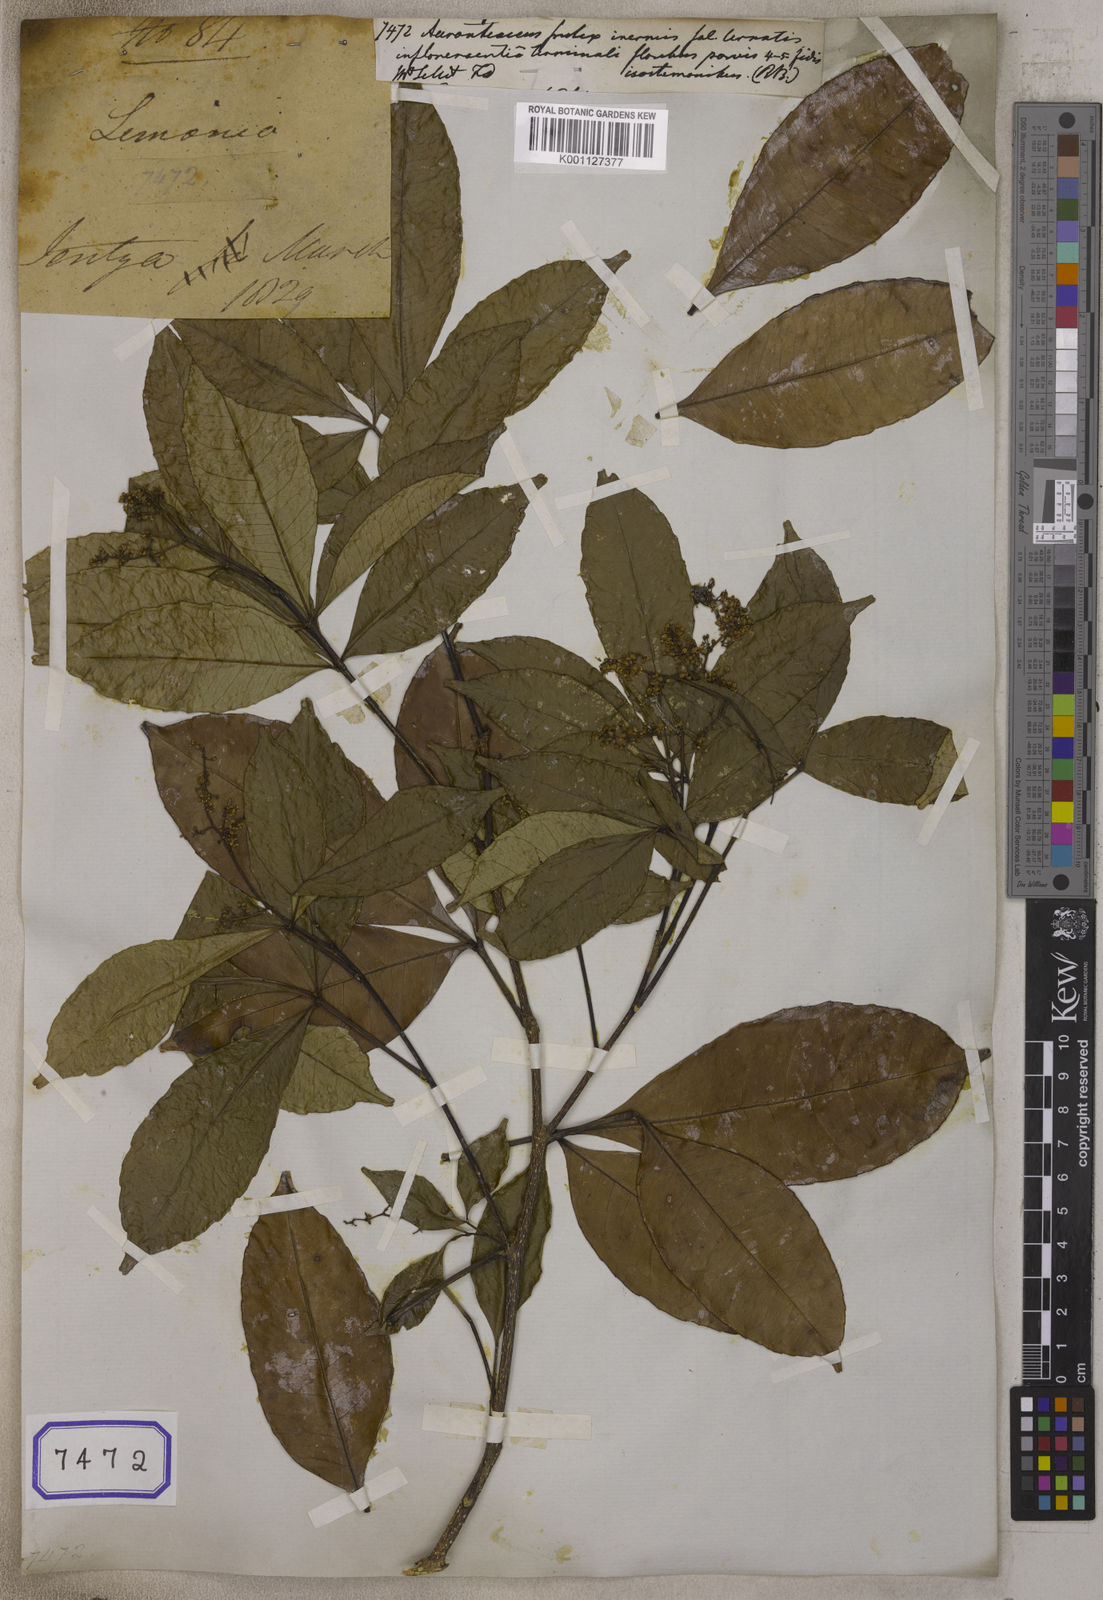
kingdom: Plantae
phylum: Tracheophyta
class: Magnoliopsida
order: Sapindales
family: Rutaceae
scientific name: Rutaceae
